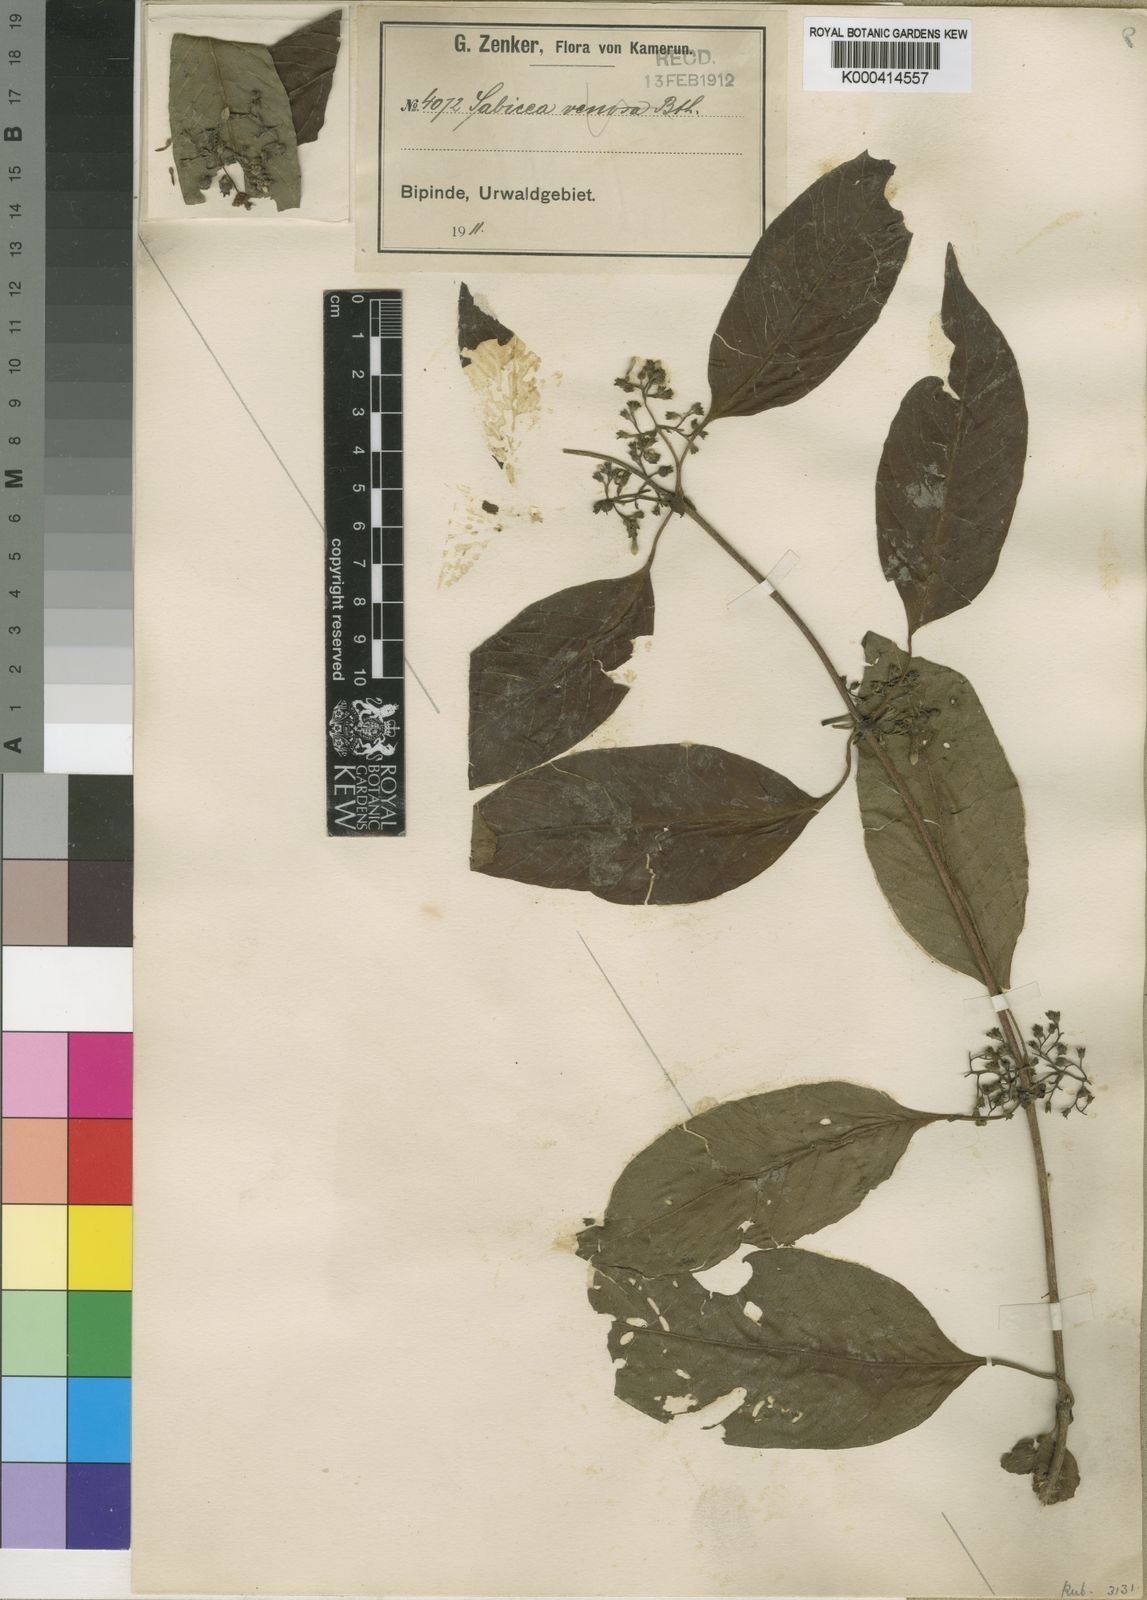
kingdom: Plantae
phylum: Tracheophyta
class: Magnoliopsida
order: Gentianales
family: Rubiaceae
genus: Sabicea
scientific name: Sabicea laxa
